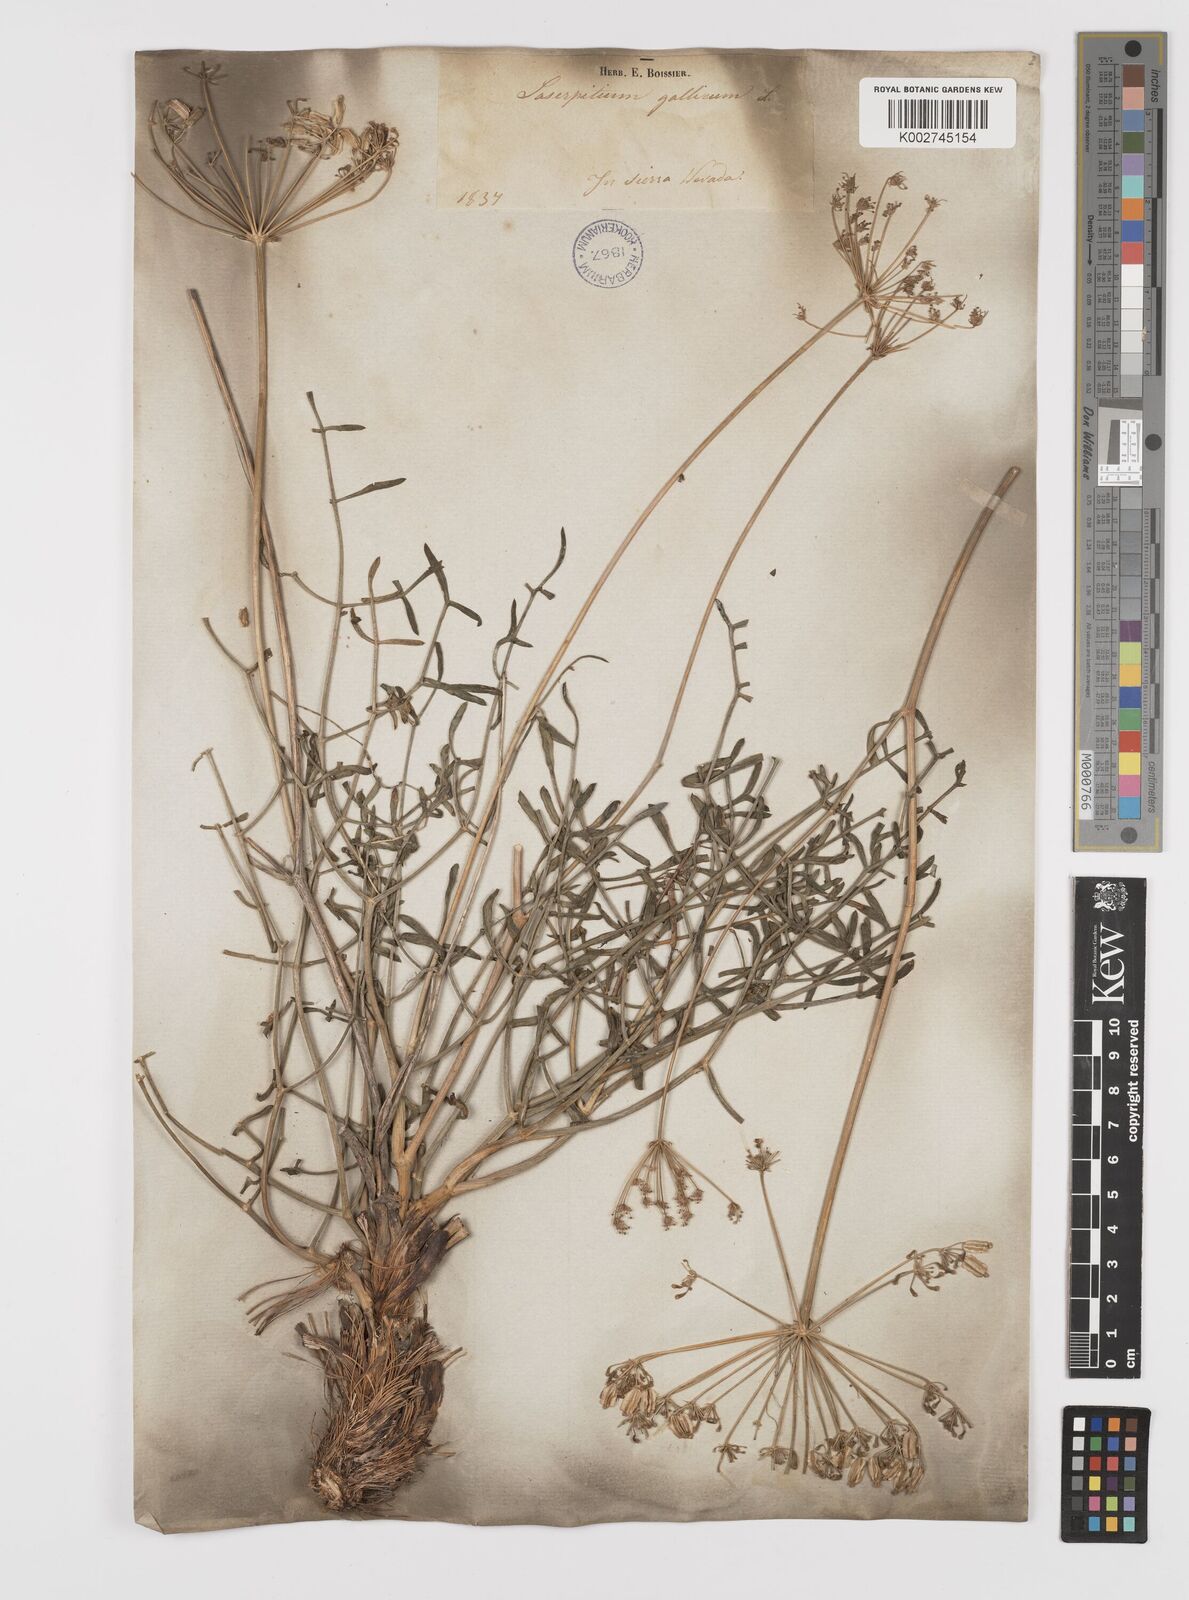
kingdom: Plantae
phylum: Tracheophyta
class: Magnoliopsida
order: Apiales
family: Apiaceae
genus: Laserpitium
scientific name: Laserpitium gallicum
